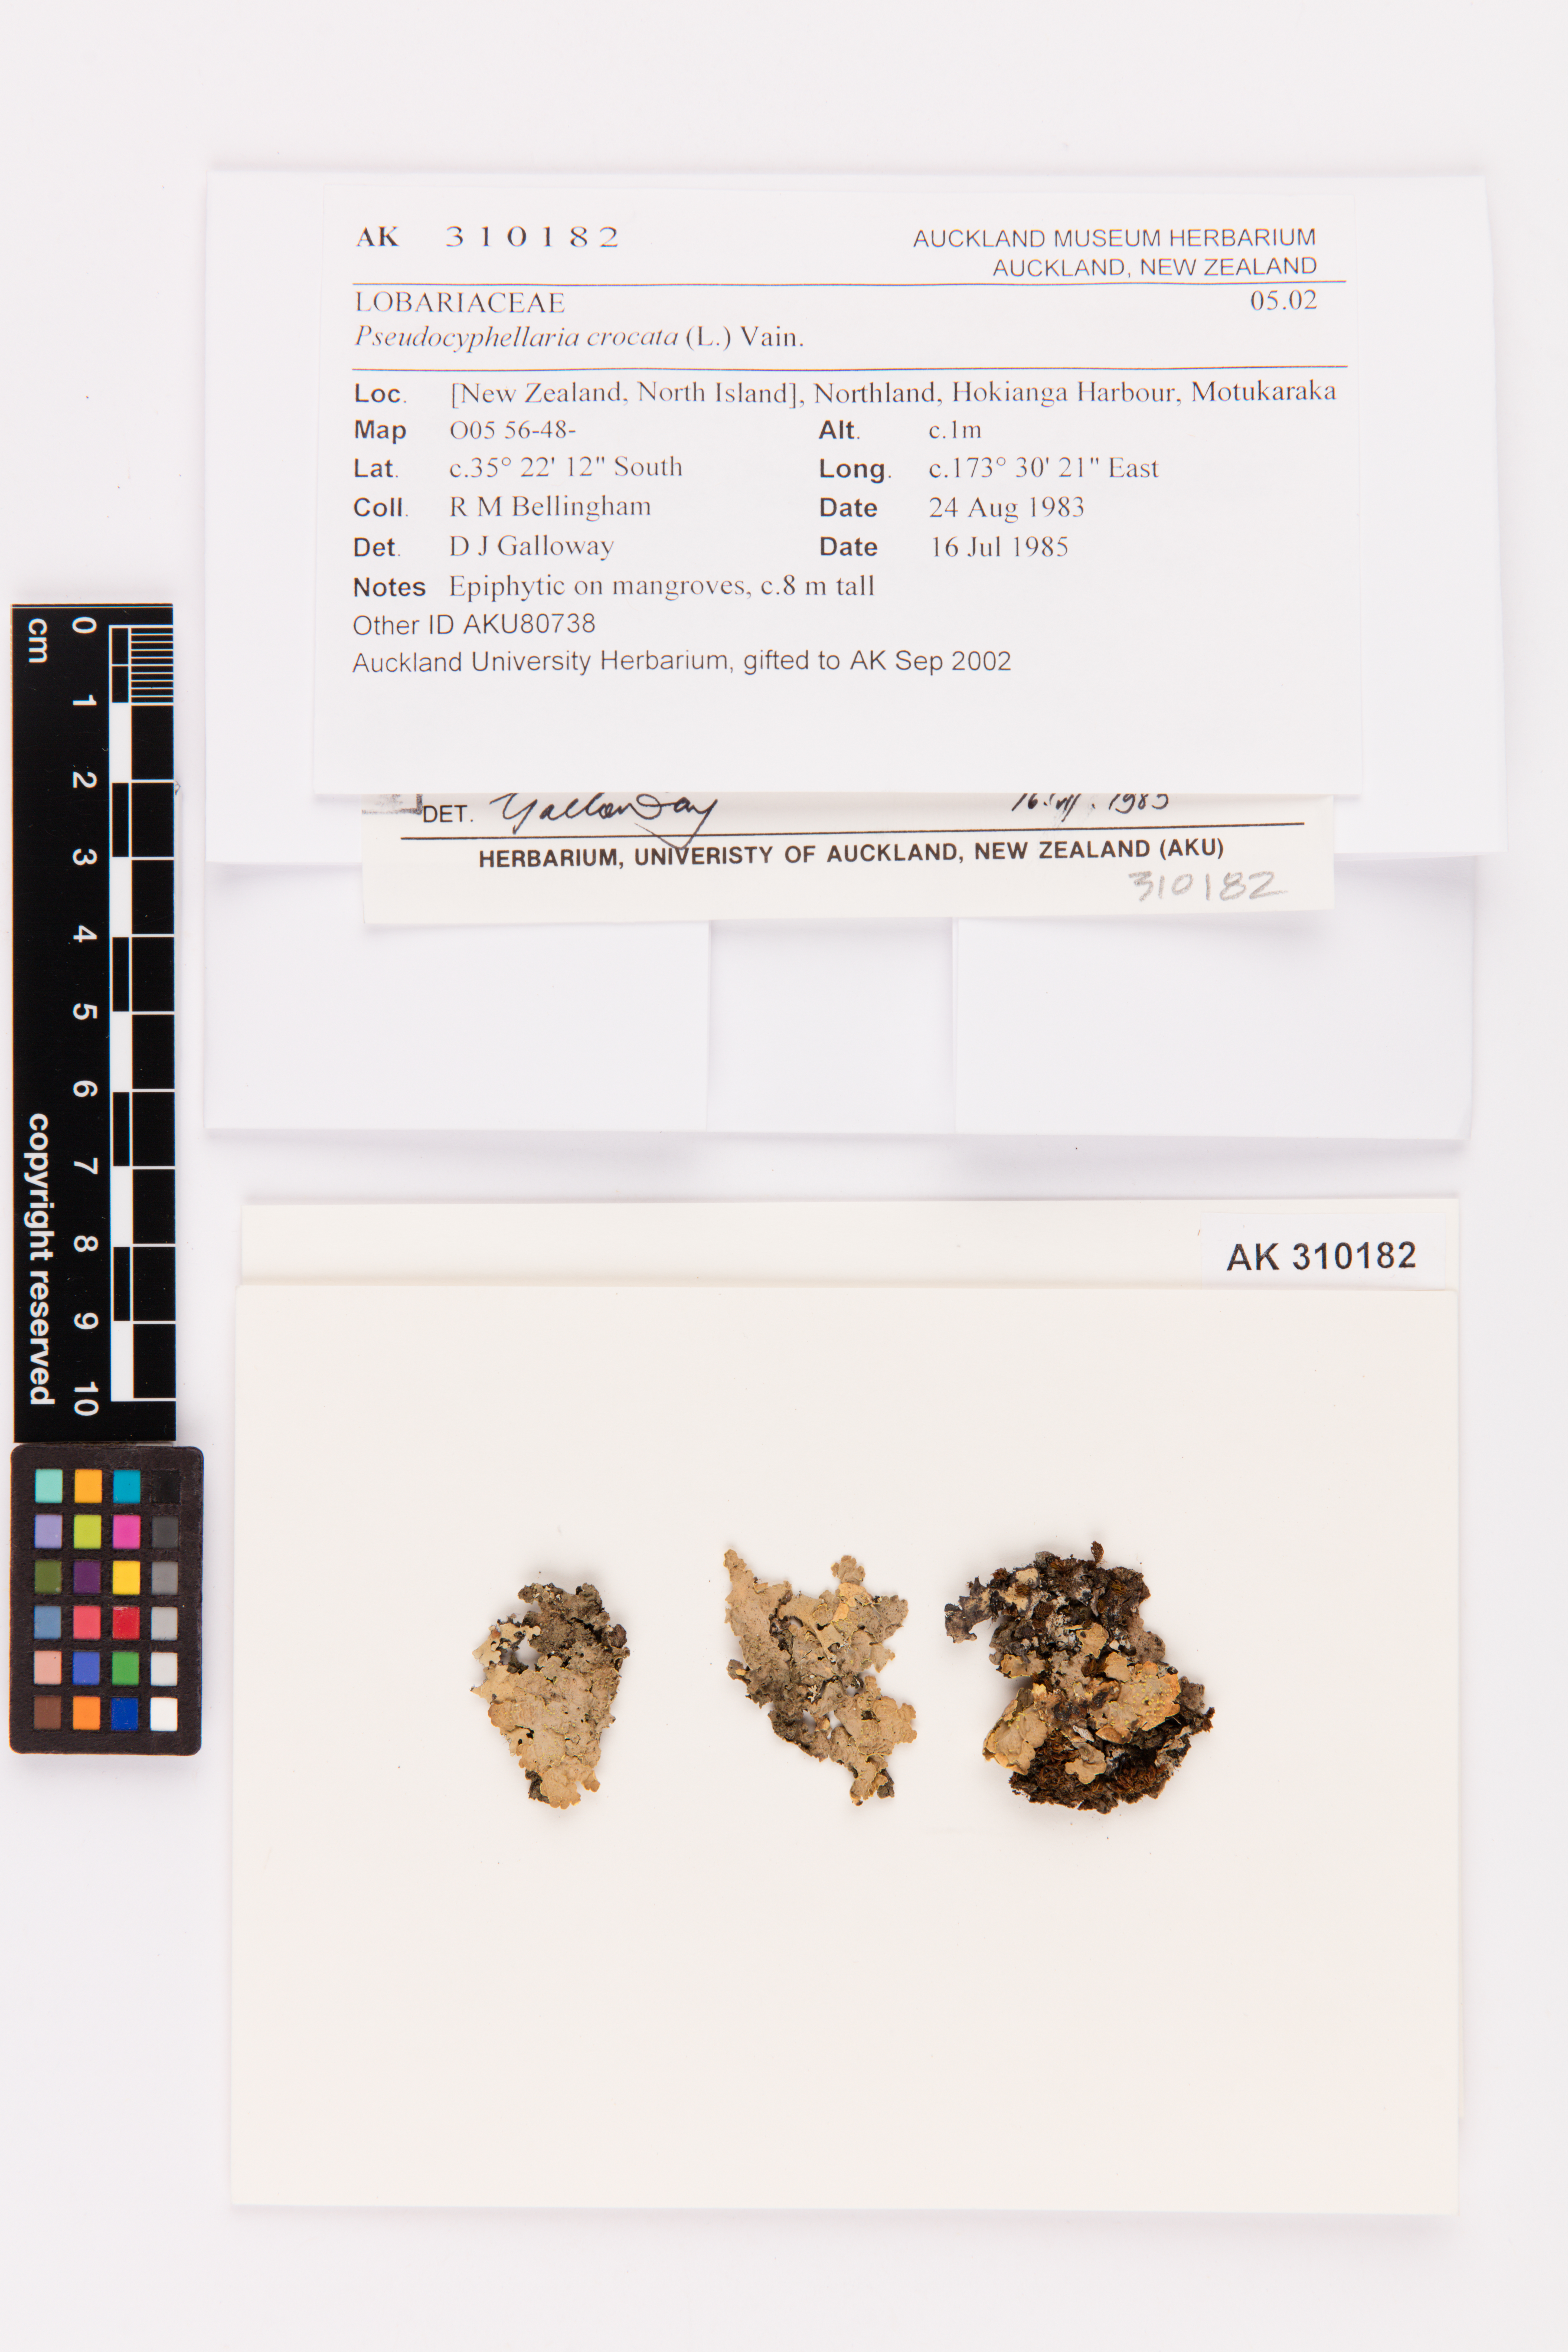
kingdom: Fungi
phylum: Ascomycota
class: Lecanoromycetes
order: Peltigerales
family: Lobariaceae
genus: Pseudocyphellaria
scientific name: Pseudocyphellaria crocata
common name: Golden specklebelly
